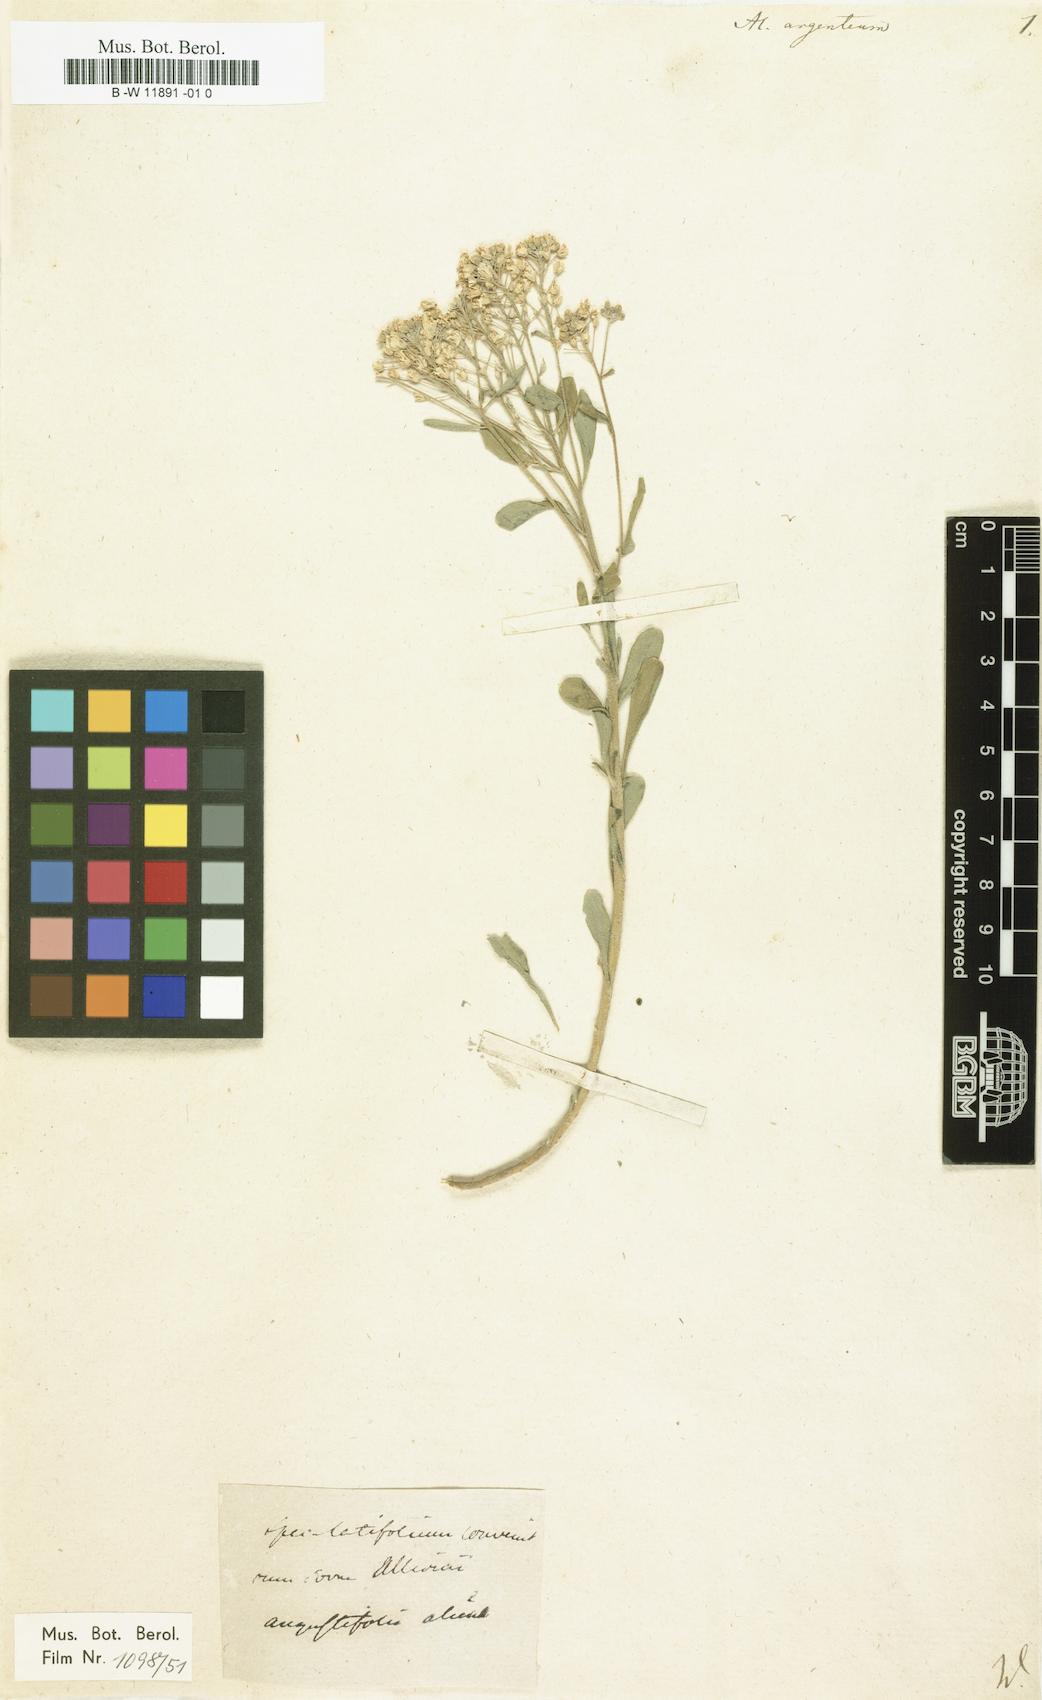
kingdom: Plantae
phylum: Tracheophyta
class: Magnoliopsida
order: Brassicales
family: Brassicaceae
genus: Odontarrhena
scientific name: Odontarrhena argentea
